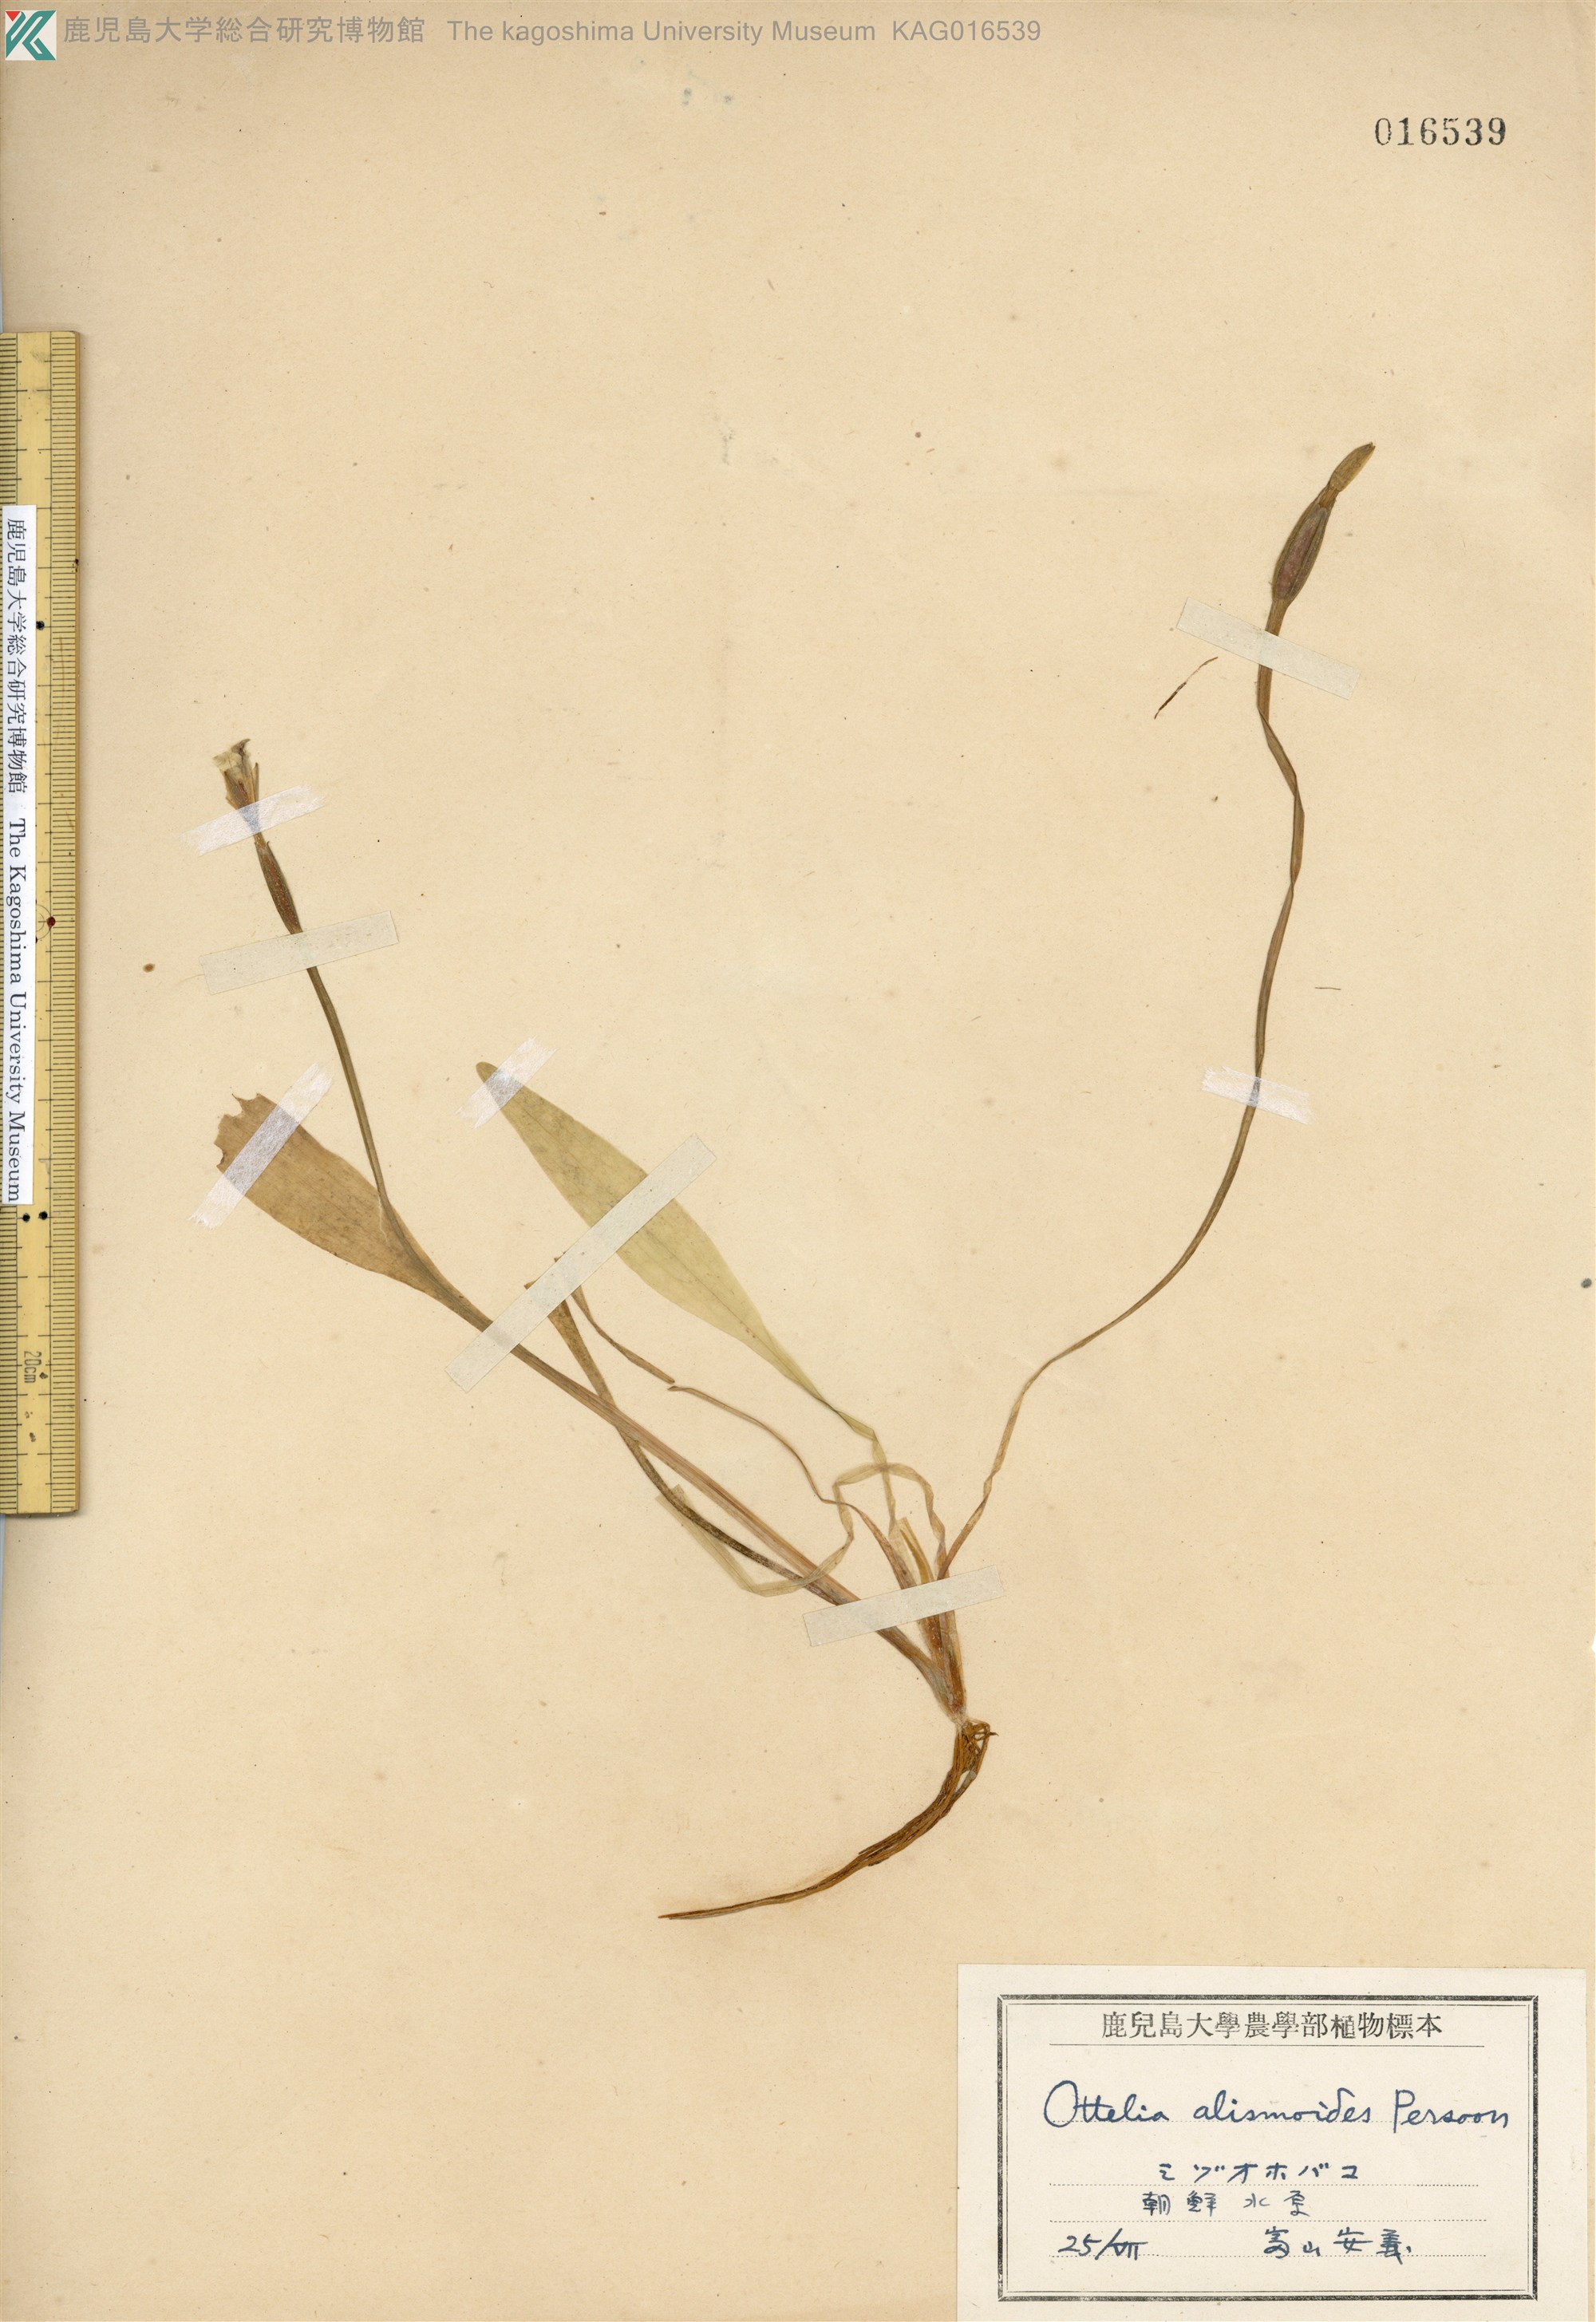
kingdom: Plantae
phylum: Tracheophyta
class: Liliopsida
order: Alismatales
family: Hydrocharitaceae
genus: Ottelia
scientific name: Ottelia alismoides
